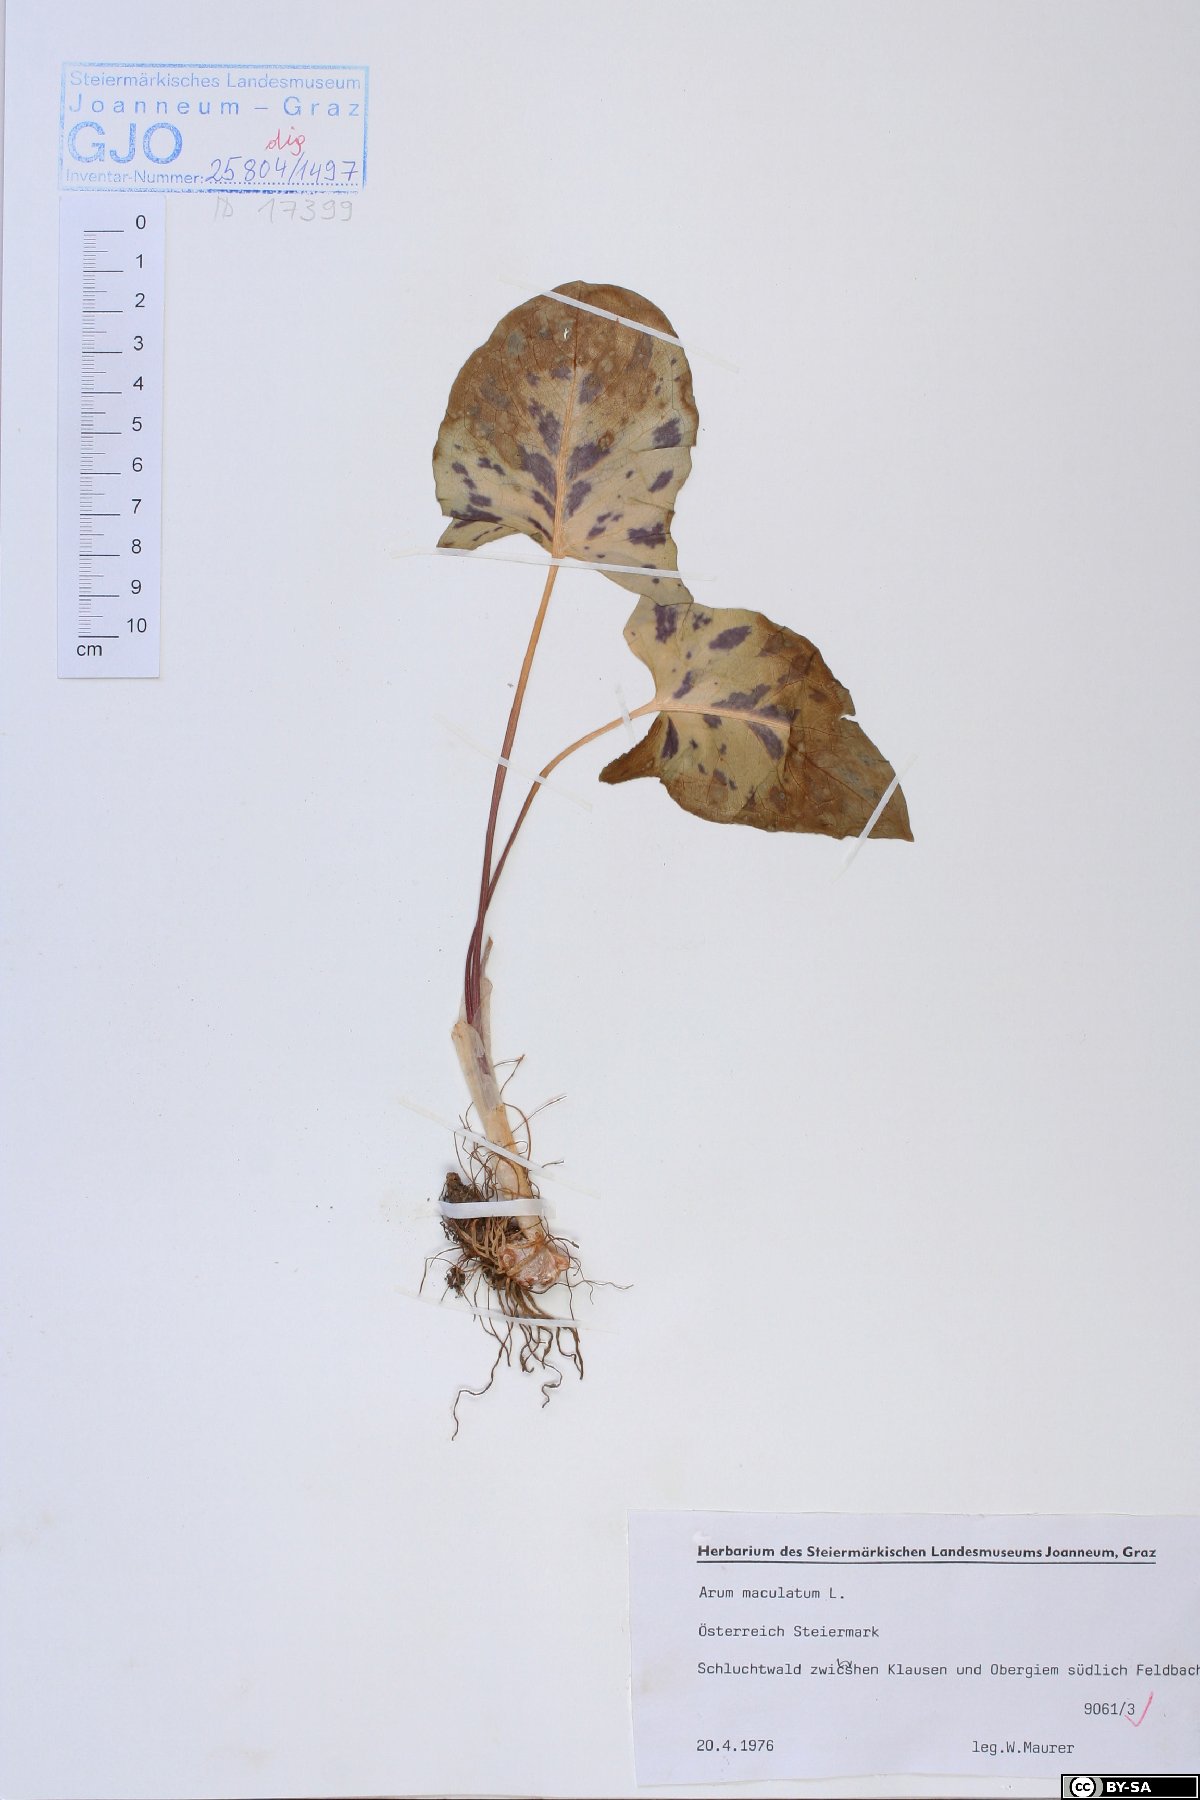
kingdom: Plantae
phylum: Tracheophyta
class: Liliopsida
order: Alismatales
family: Araceae
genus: Arum
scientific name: Arum maculatum
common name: Lords-and-ladies
